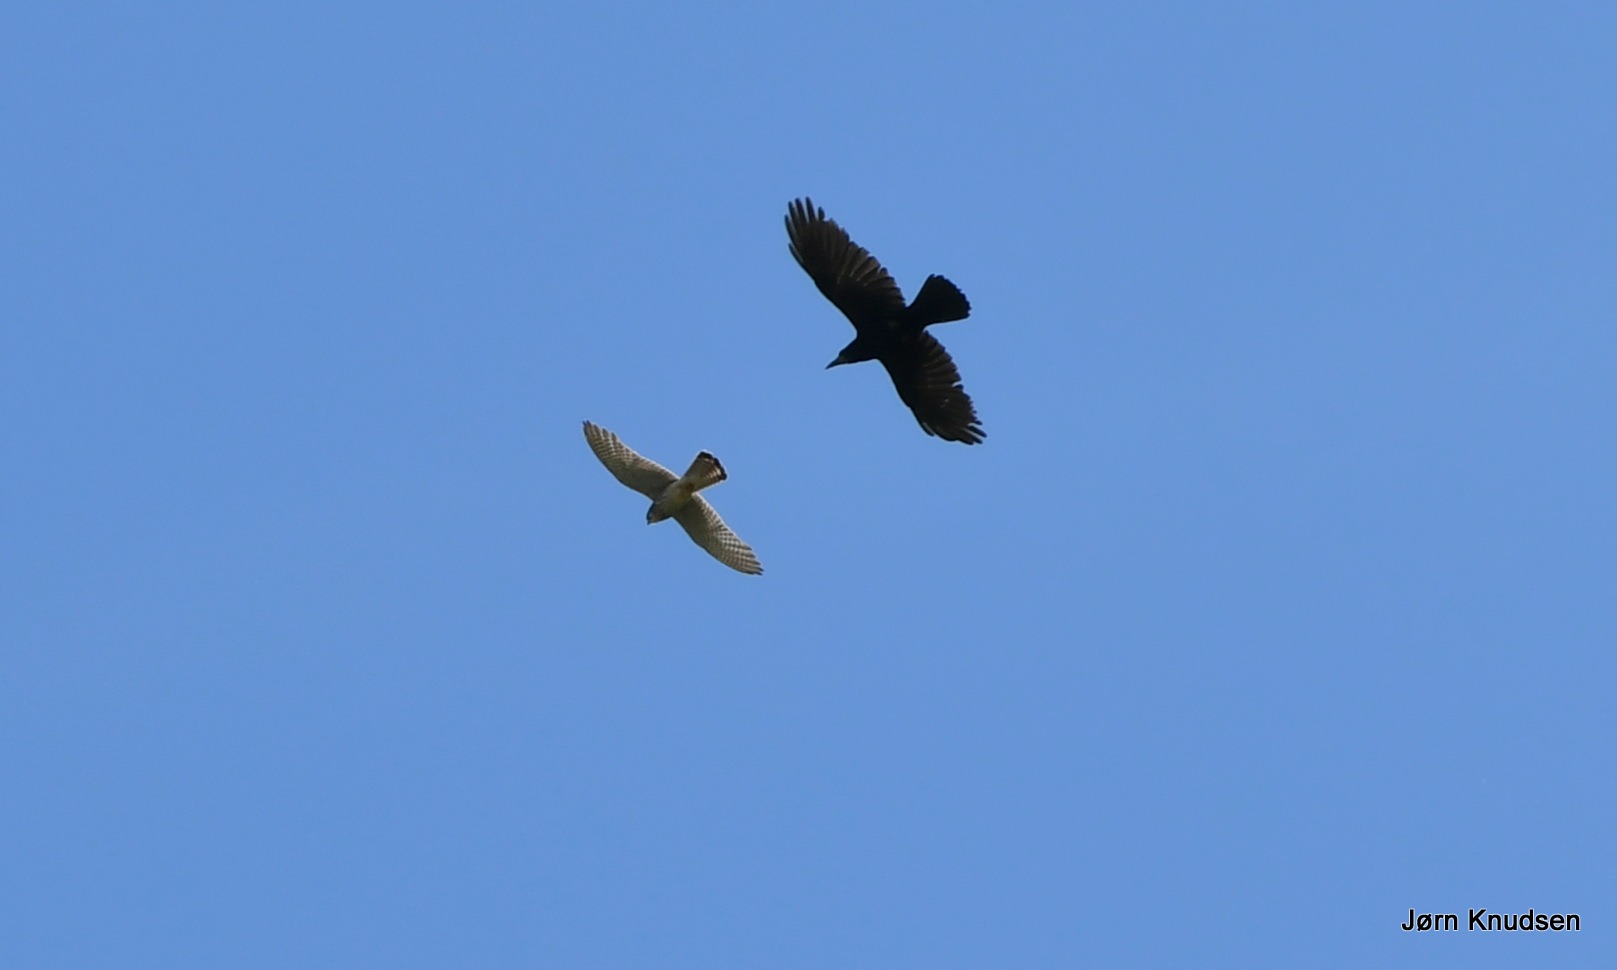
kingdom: Animalia
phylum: Chordata
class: Aves
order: Falconiformes
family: Falconidae
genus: Falco
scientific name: Falco tinnunculus
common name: Tårnfalk
